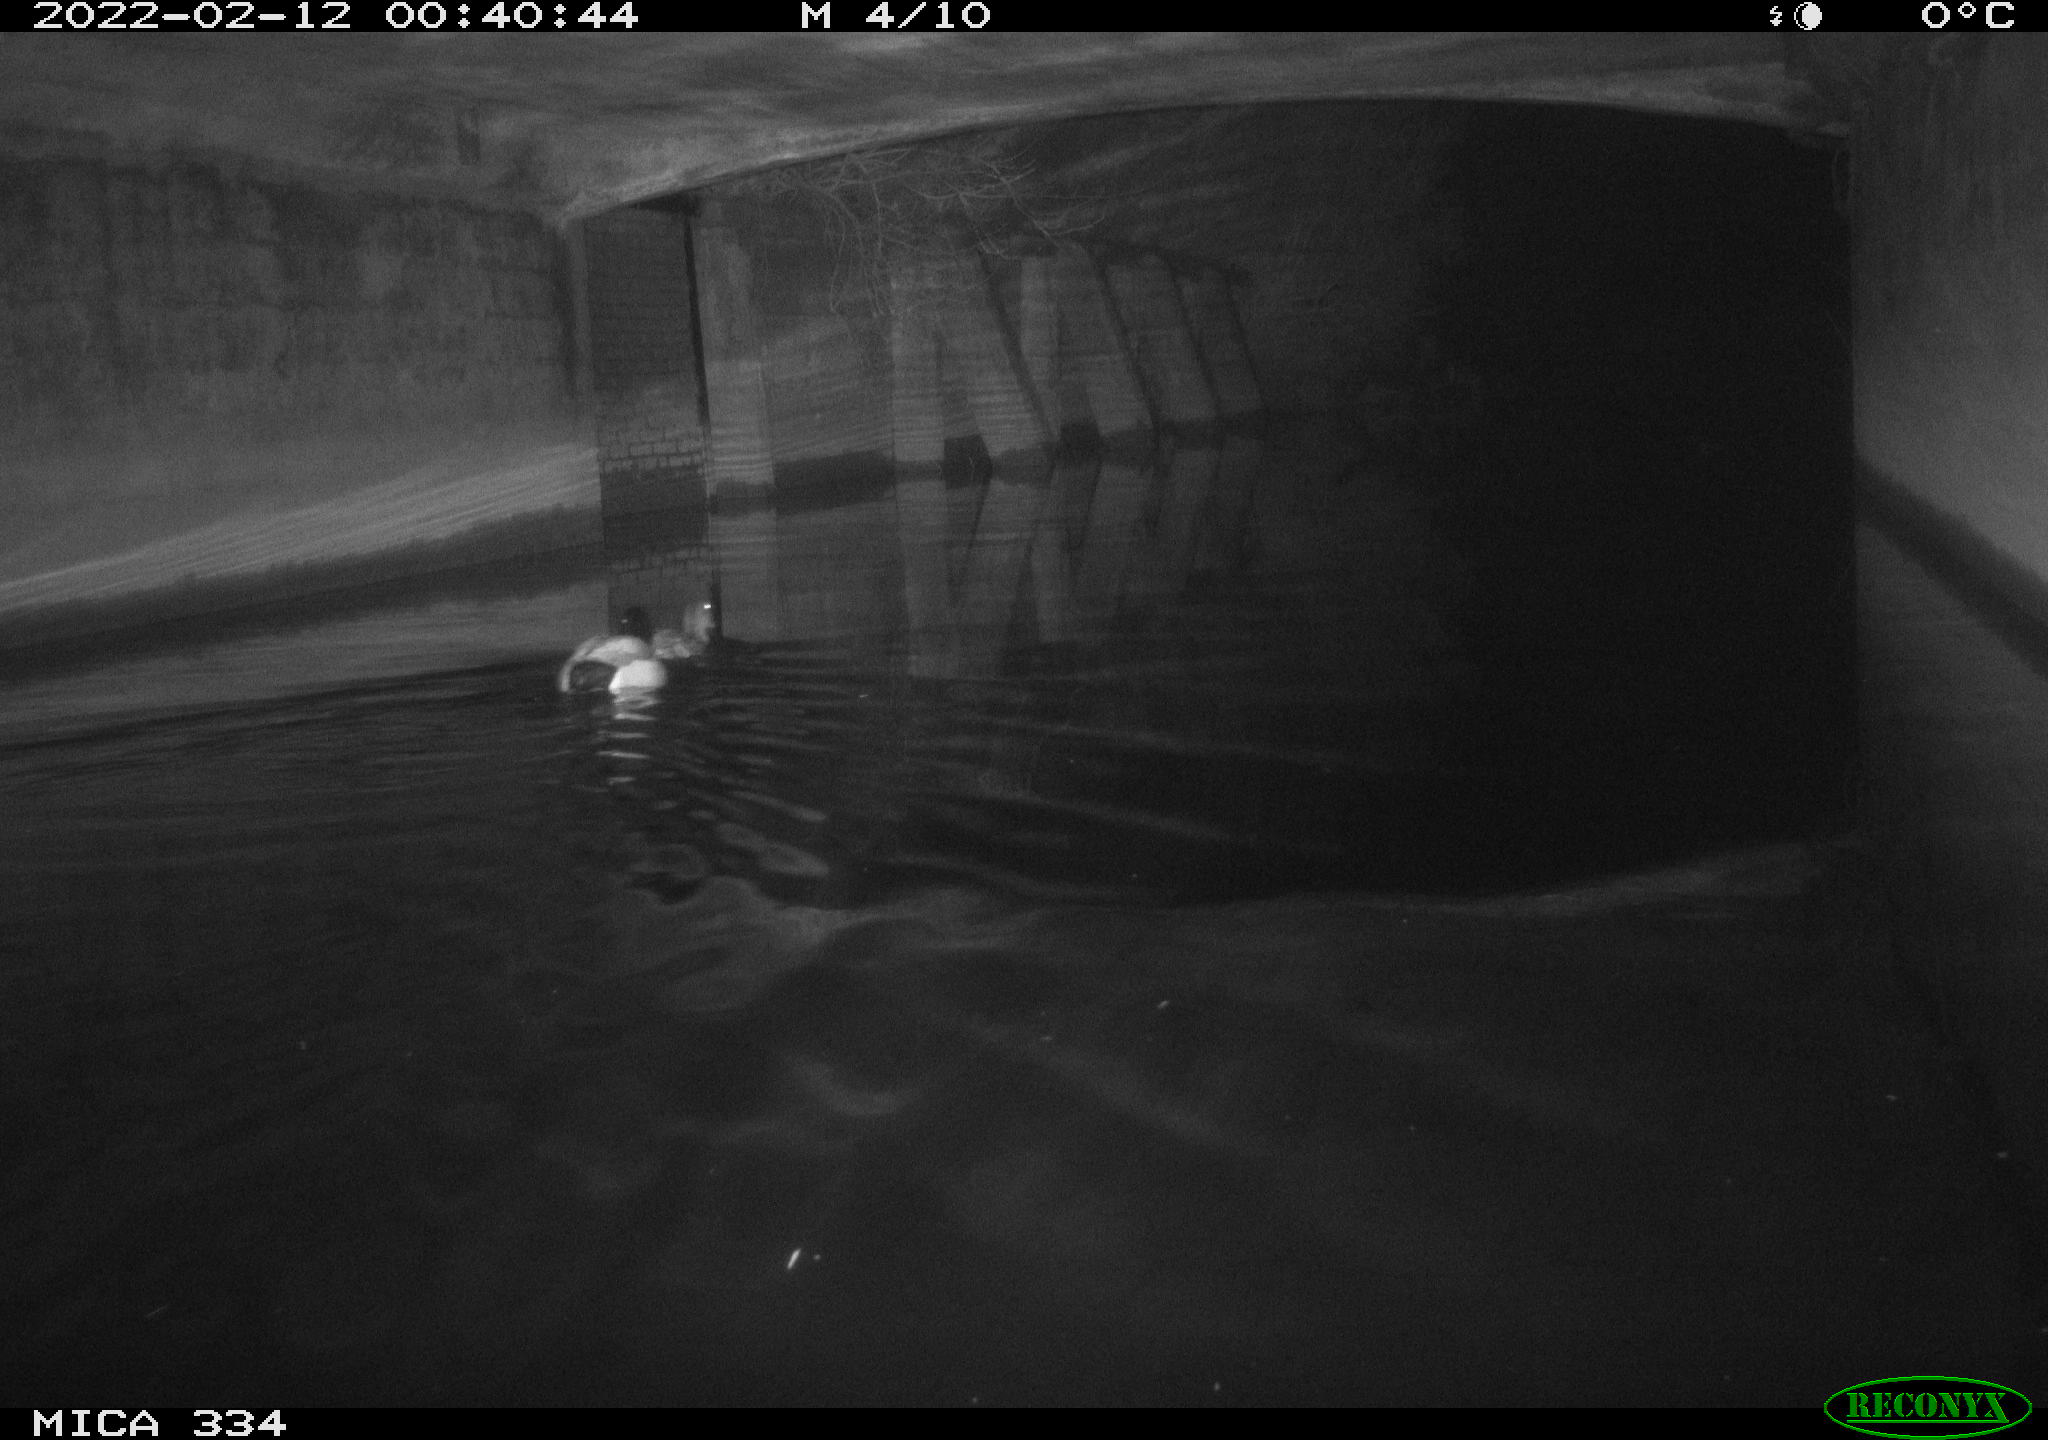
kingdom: Animalia
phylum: Chordata
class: Aves
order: Anseriformes
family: Anatidae
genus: Anas
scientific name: Anas platyrhynchos
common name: Mallard
